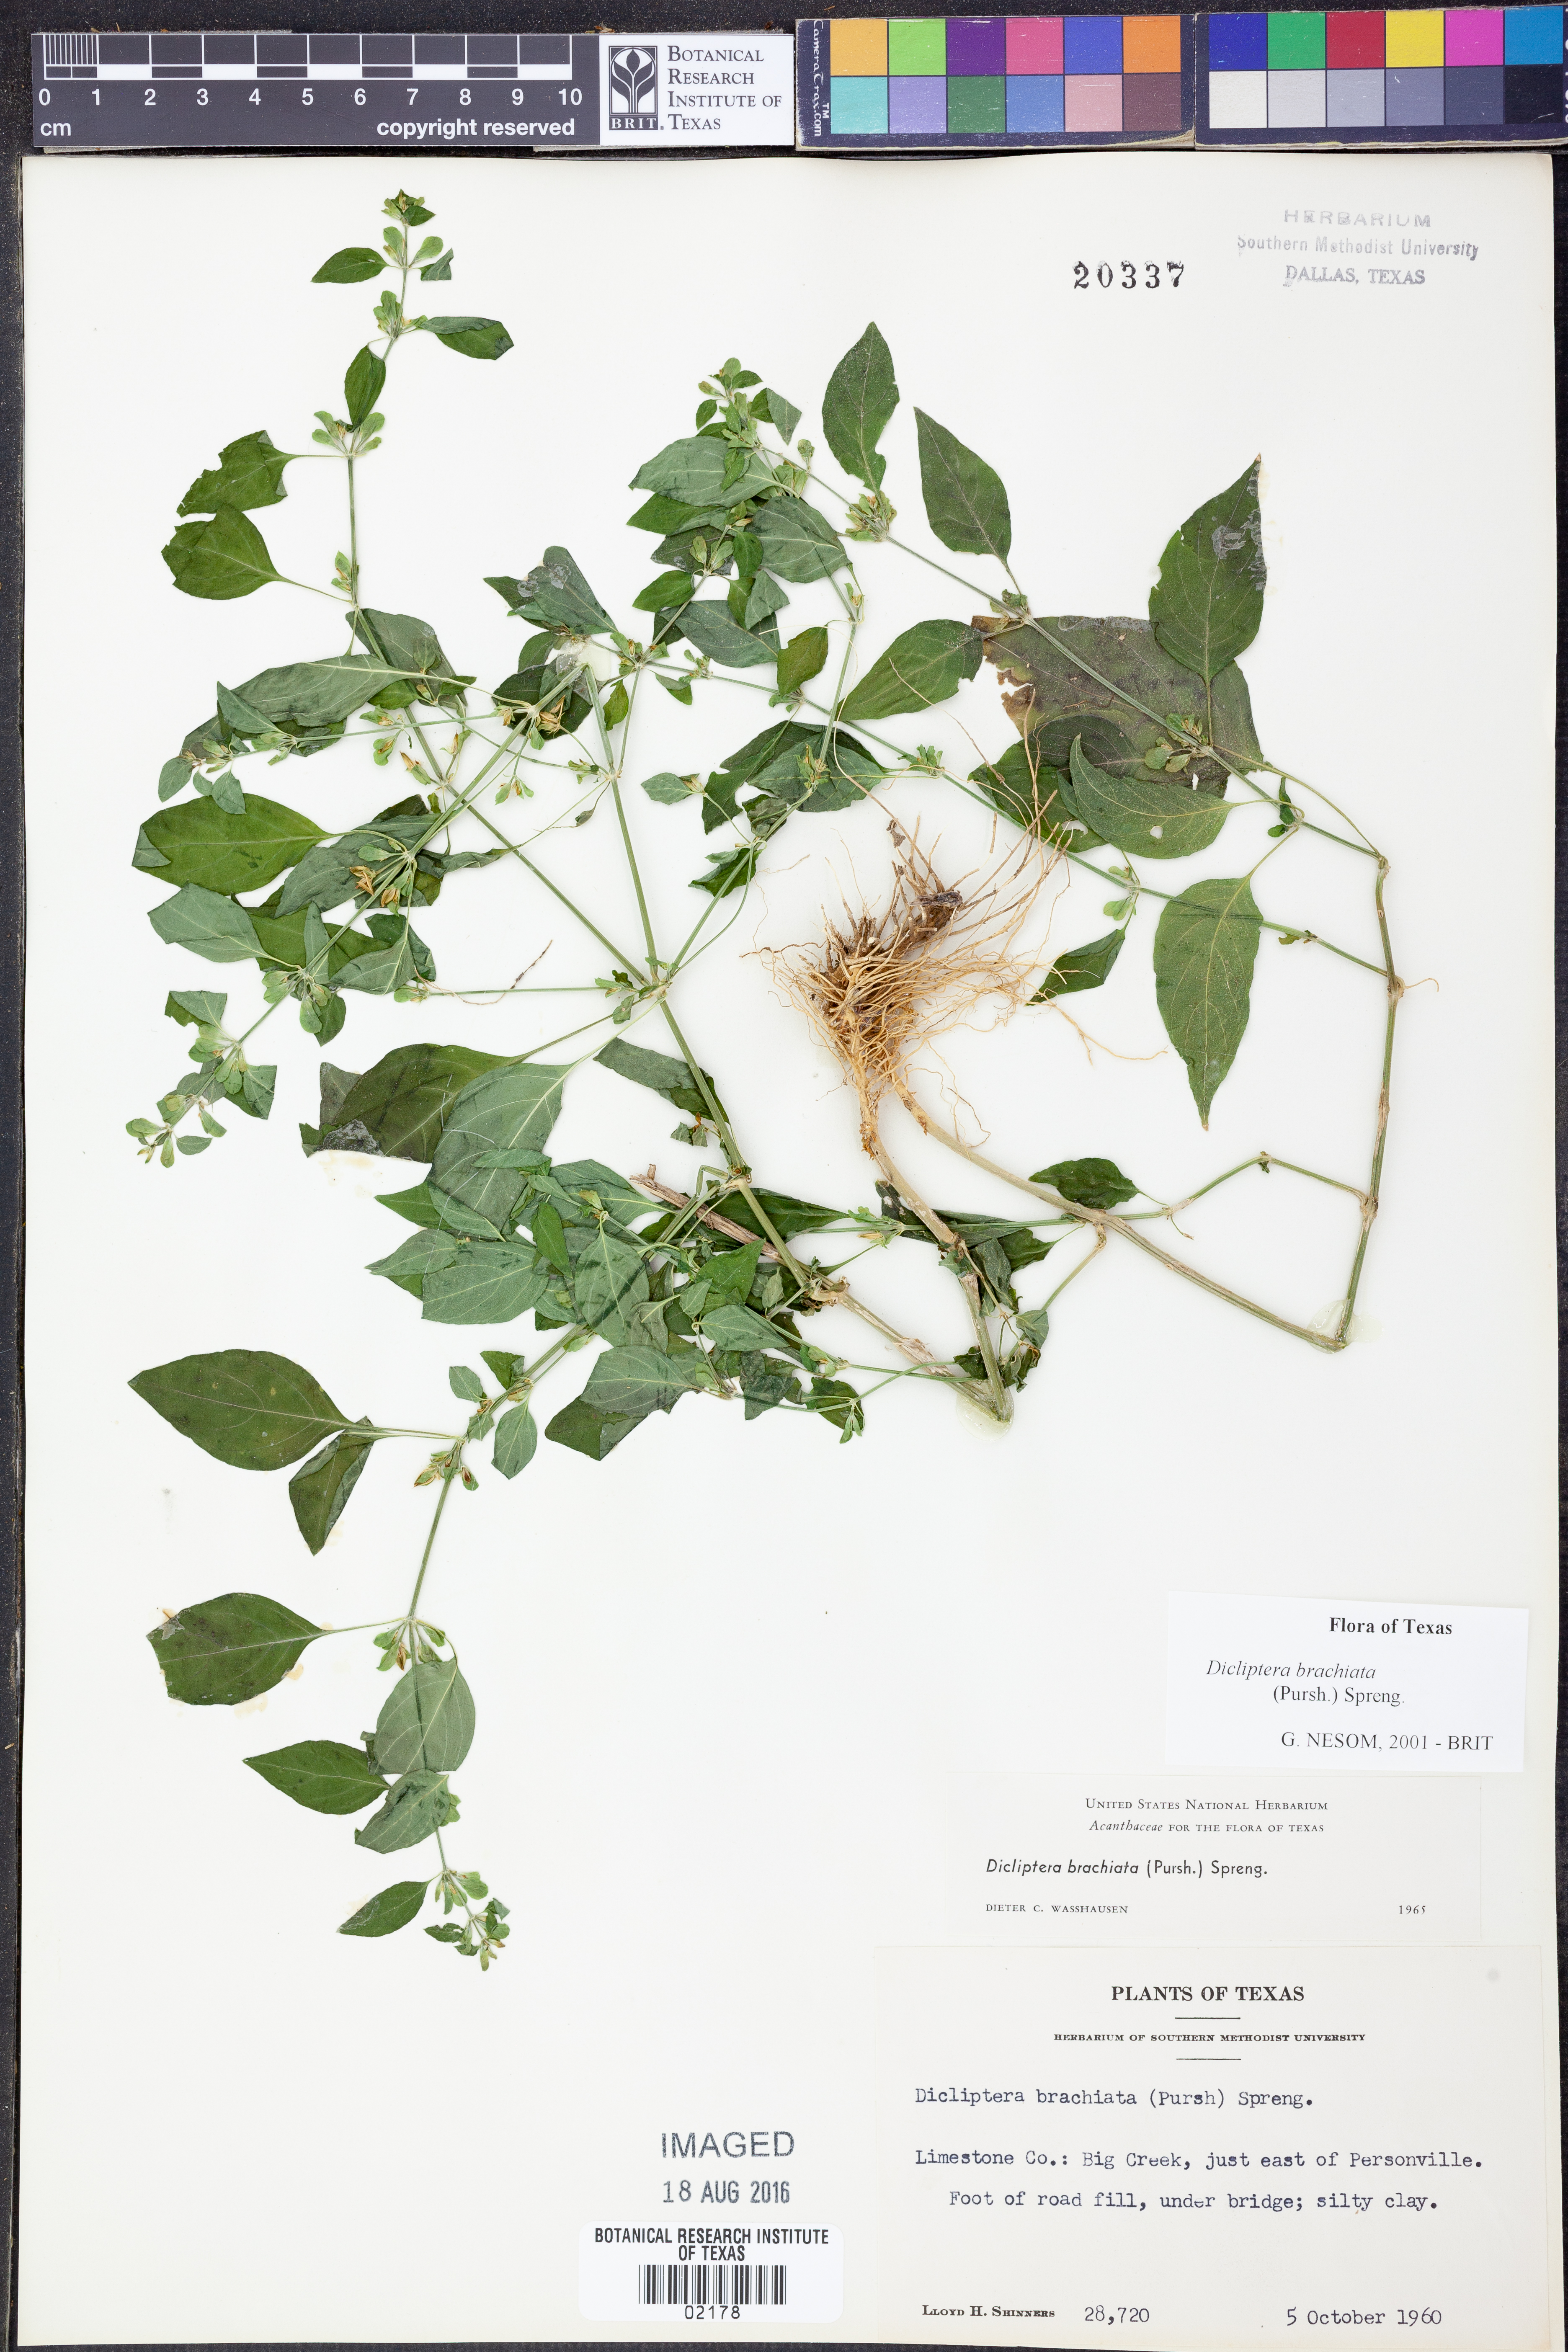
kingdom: Plantae
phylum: Tracheophyta
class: Magnoliopsida
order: Lamiales
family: Acanthaceae
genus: Dicliptera
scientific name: Dicliptera brachiata
